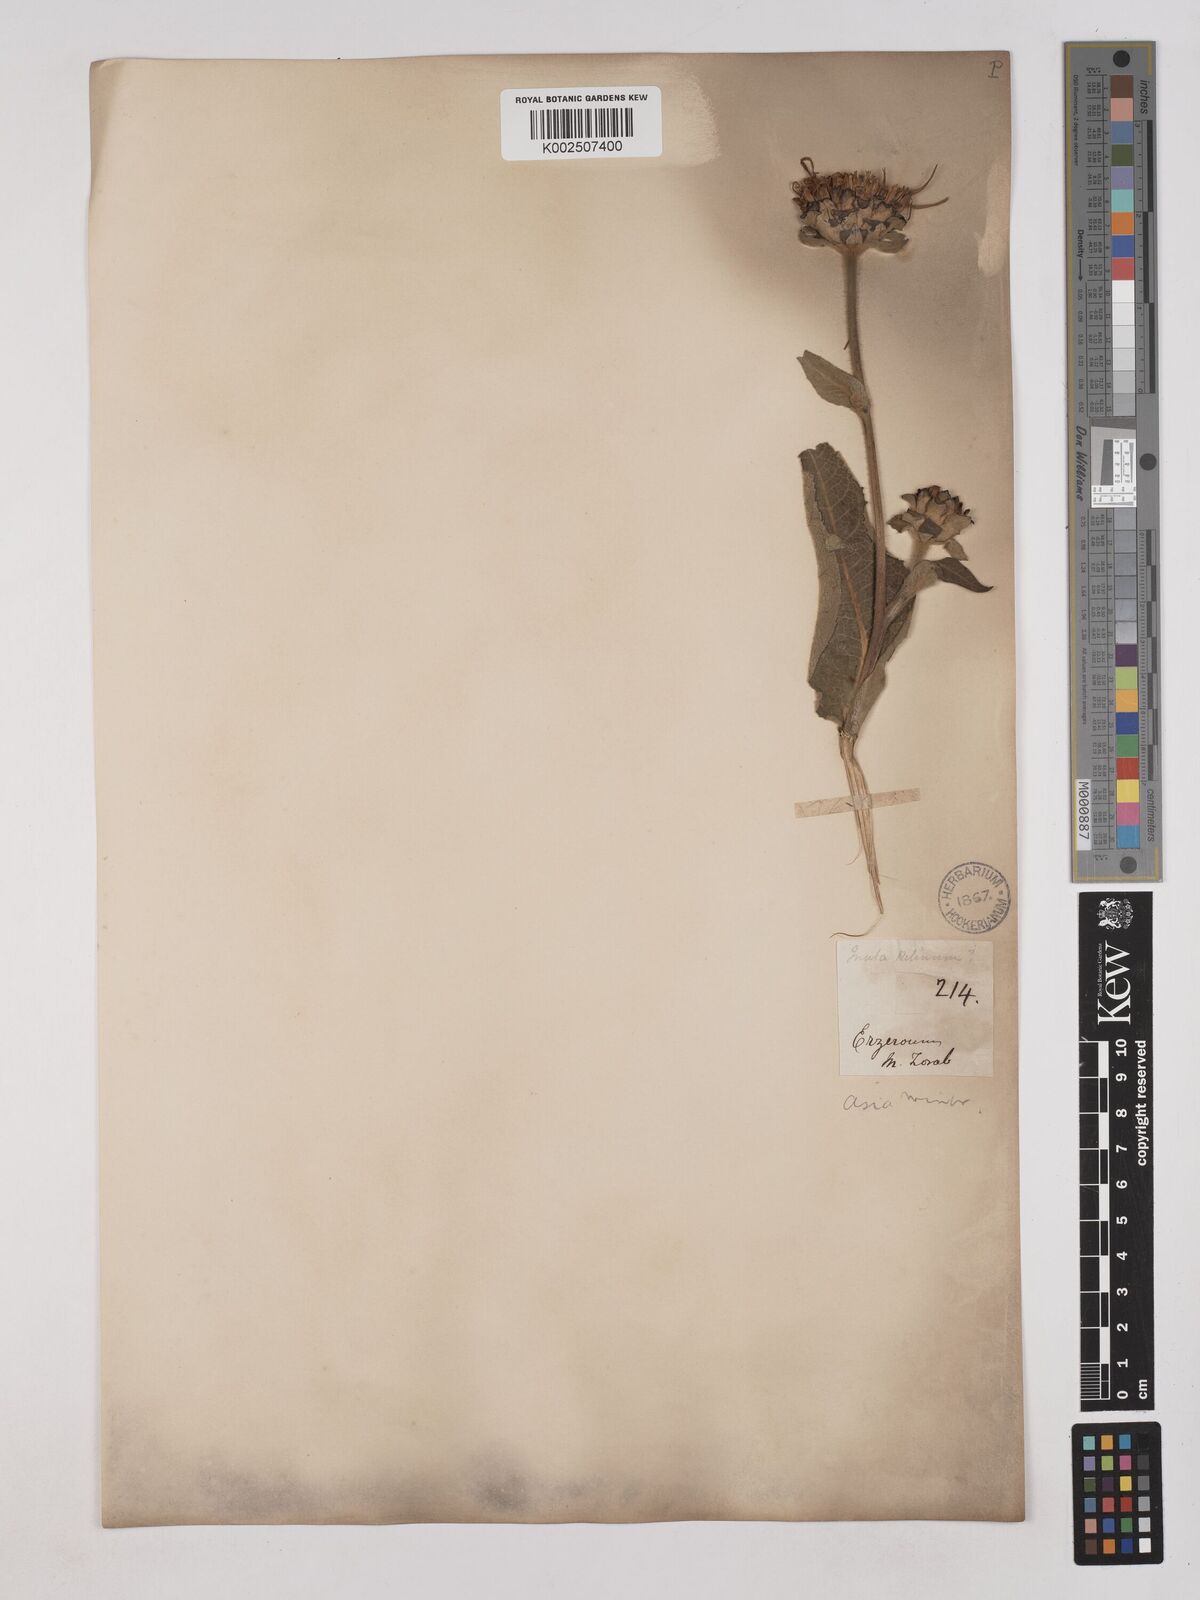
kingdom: Plantae
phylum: Tracheophyta
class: Magnoliopsida
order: Asterales
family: Asteraceae
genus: Inula
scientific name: Inula helenium
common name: Elecampane
